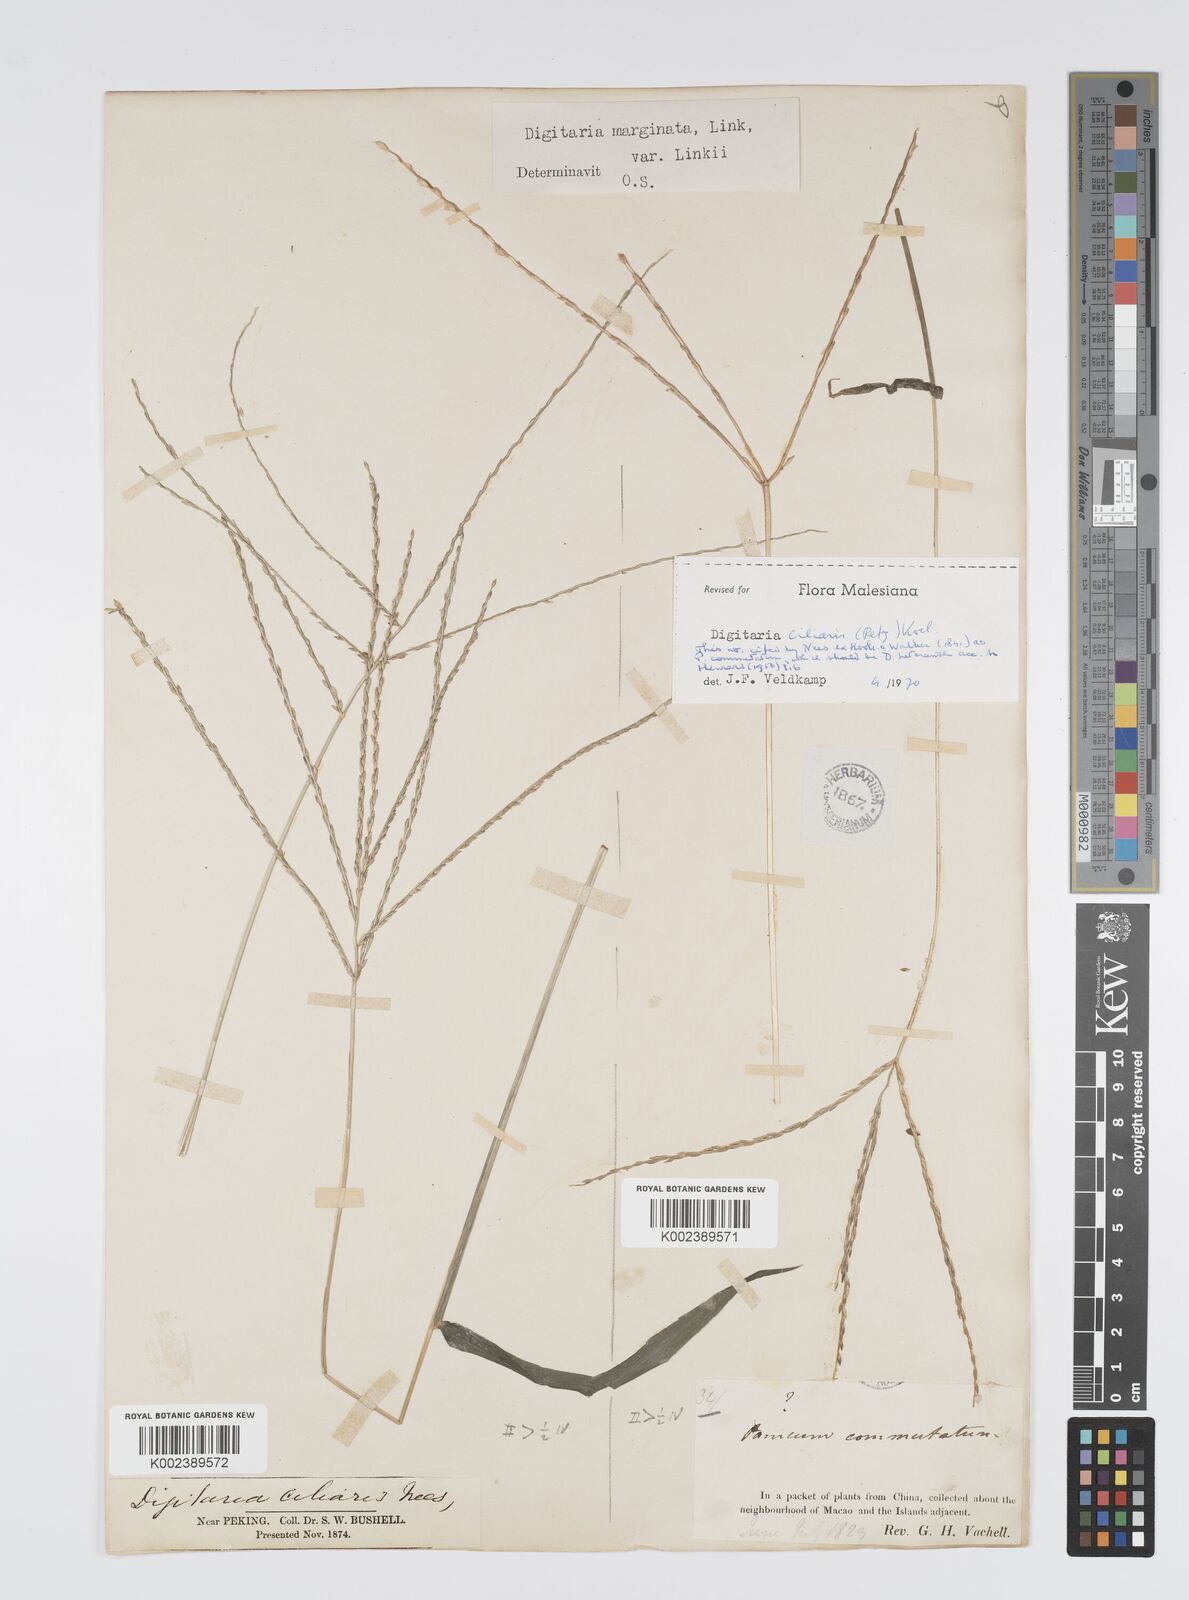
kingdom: Plantae
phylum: Tracheophyta
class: Liliopsida
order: Poales
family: Poaceae
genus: Digitaria
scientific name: Digitaria ciliaris
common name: Tropical finger-grass
